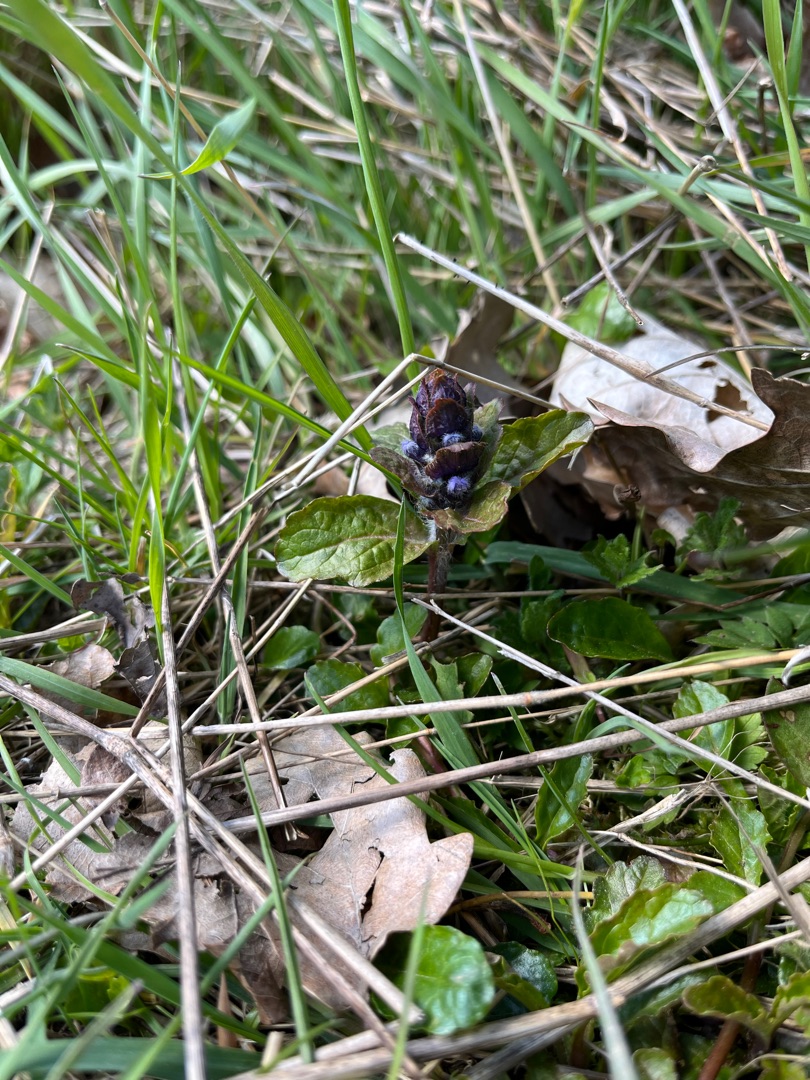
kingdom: Plantae
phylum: Tracheophyta
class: Magnoliopsida
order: Lamiales
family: Lamiaceae
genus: Ajuga
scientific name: Ajuga reptans
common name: Krybende læbeløs
